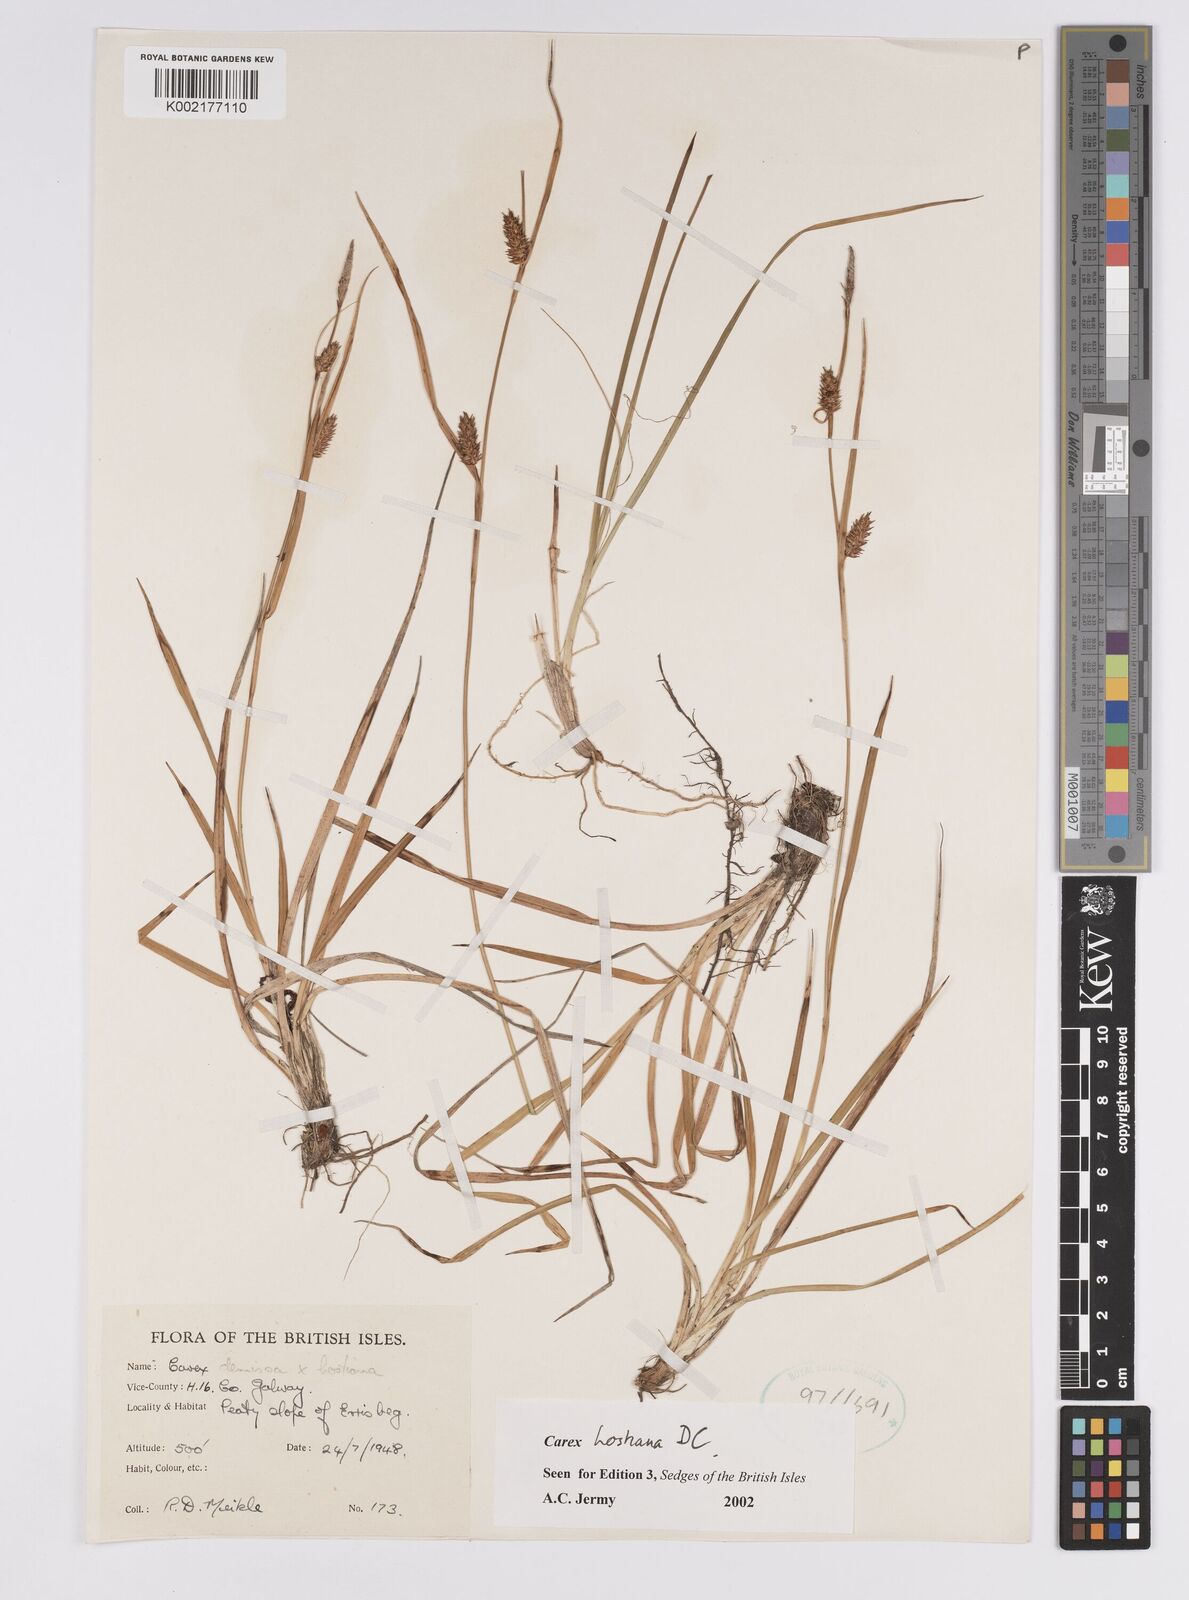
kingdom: Plantae
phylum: Tracheophyta
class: Liliopsida
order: Poales
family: Cyperaceae
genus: Carex
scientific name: Carex hostiana
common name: Tawny sedge
